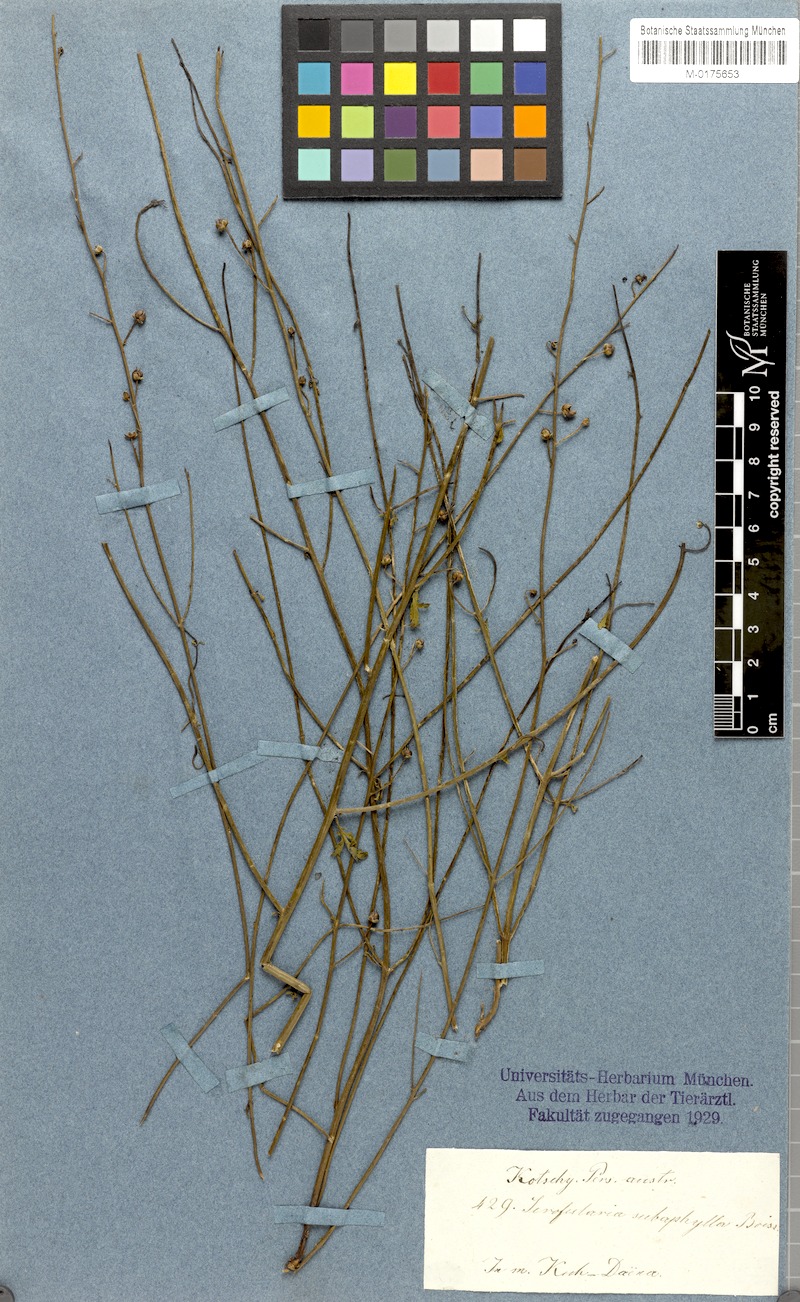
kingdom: Plantae
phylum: Tracheophyta
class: Magnoliopsida
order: Lamiales
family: Scrophulariaceae
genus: Scrophularia
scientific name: Scrophularia subaphylla
